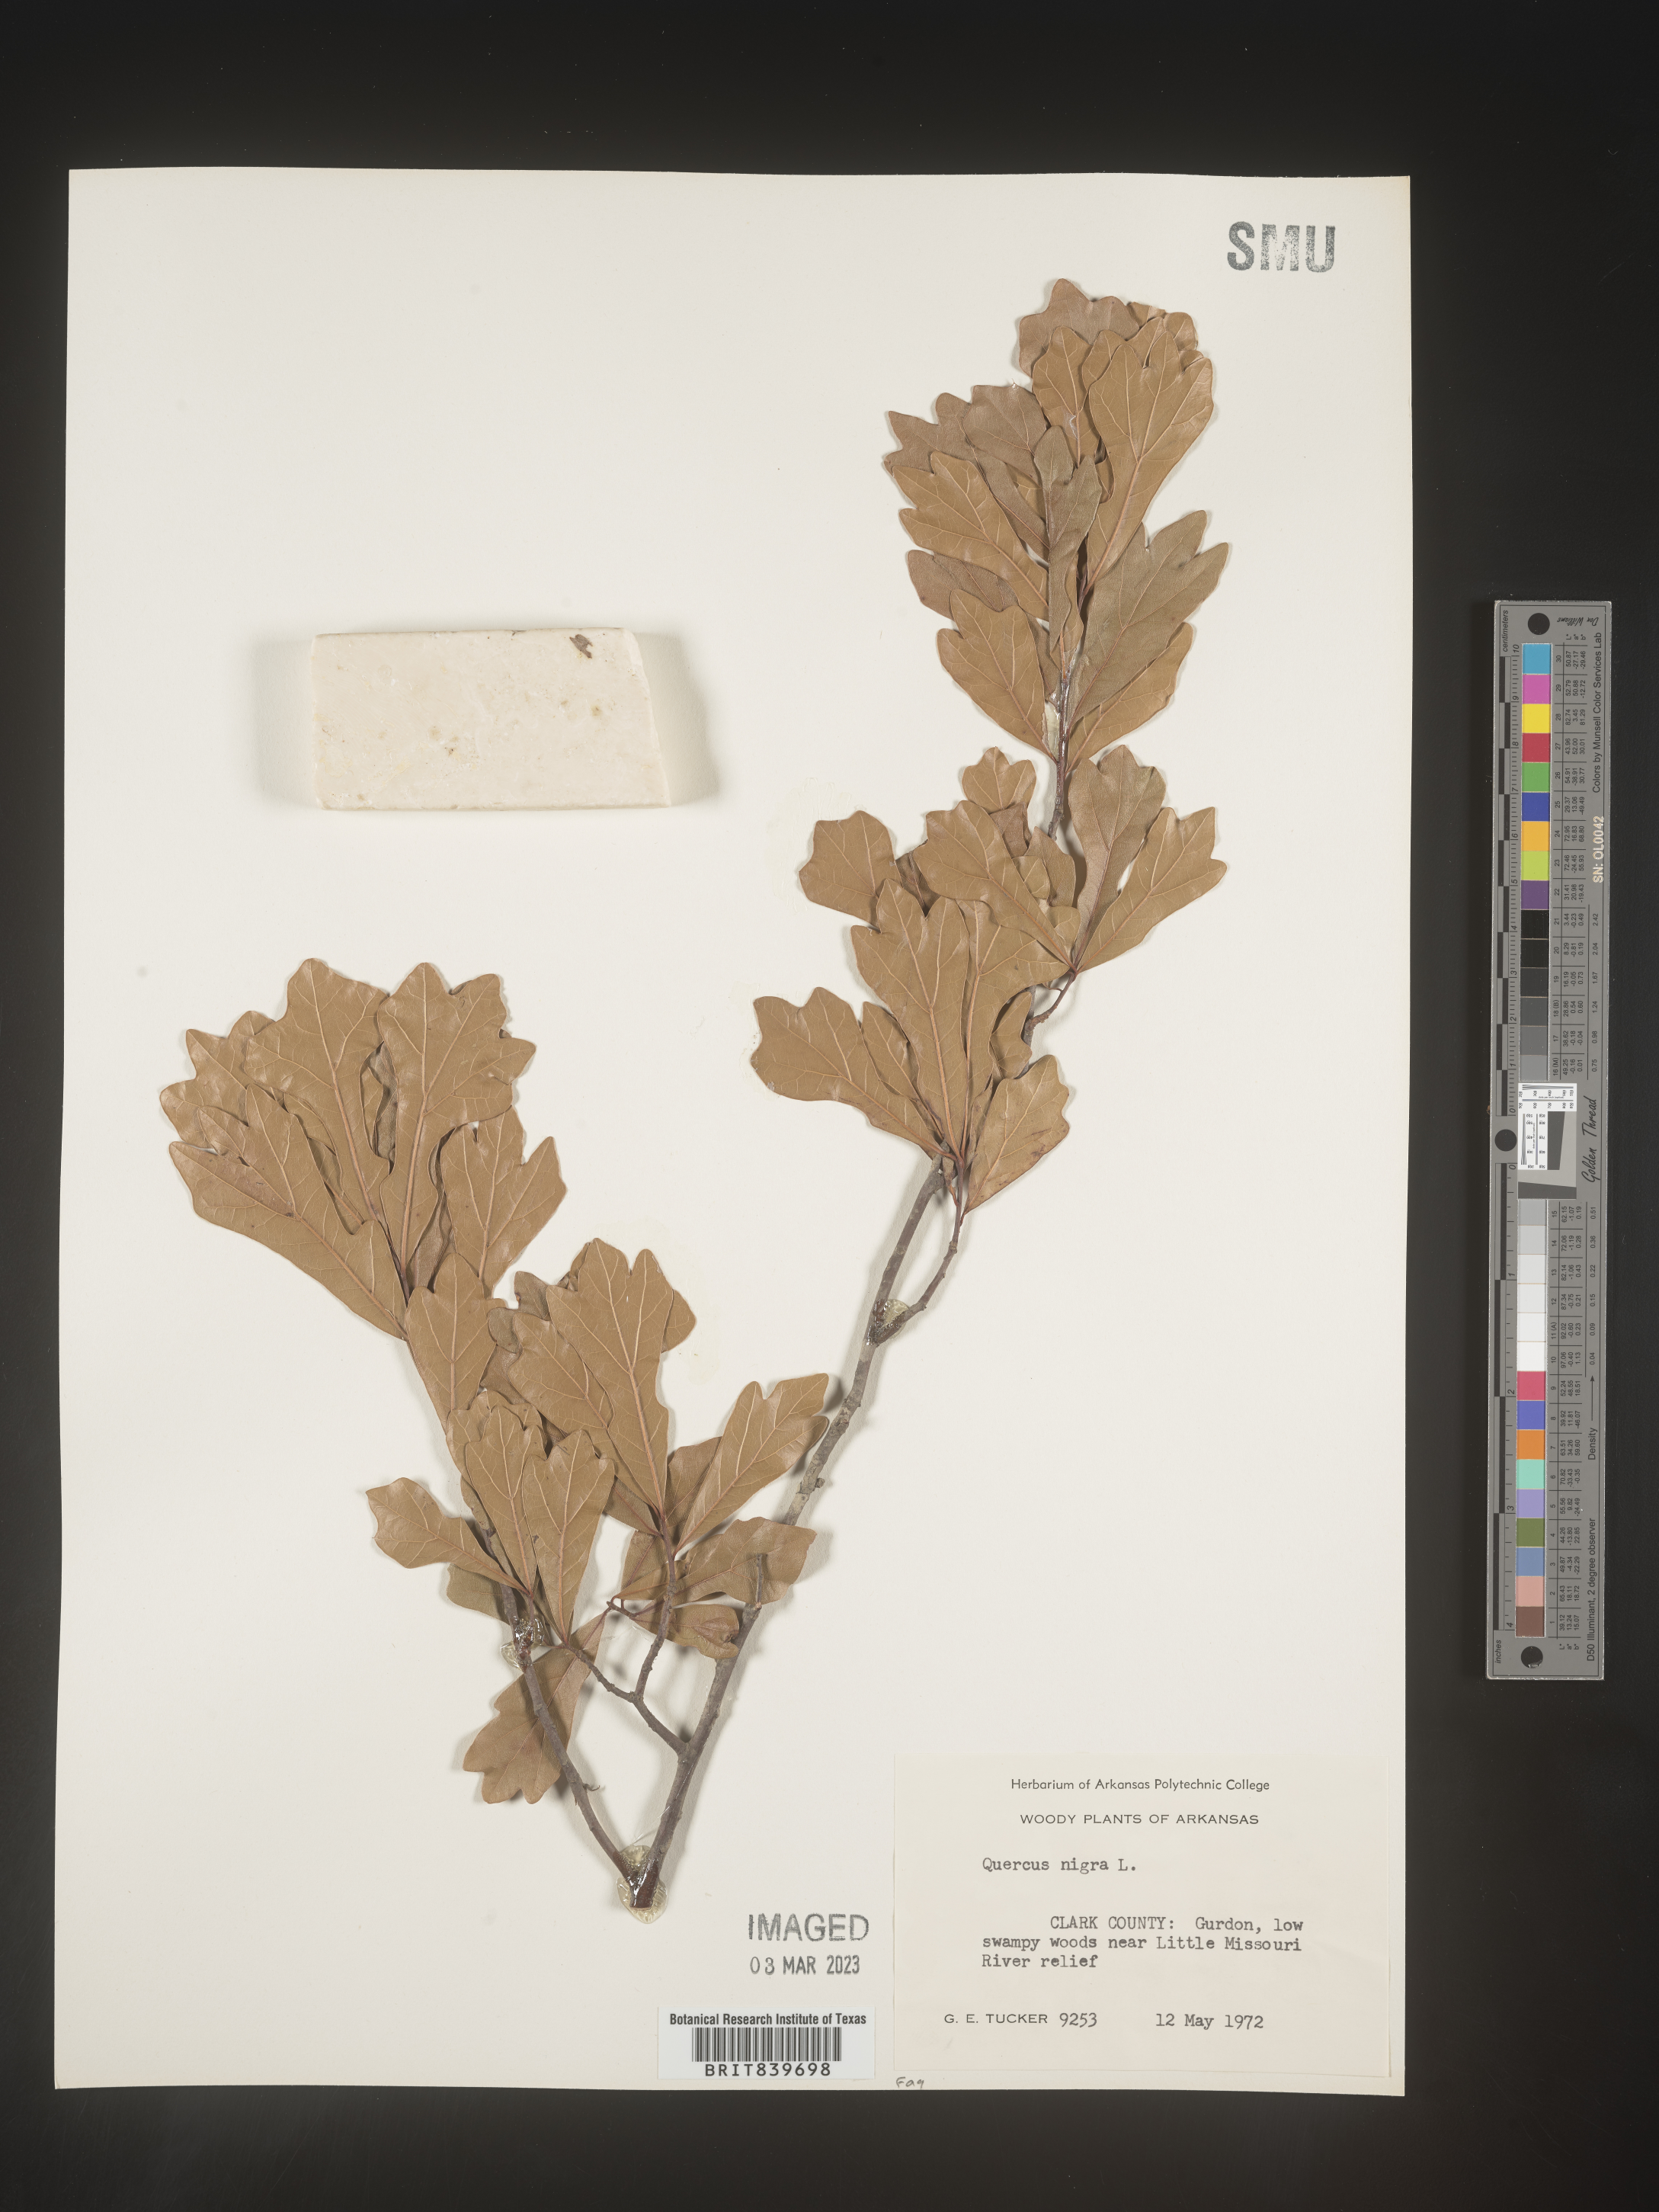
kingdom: Plantae
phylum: Tracheophyta
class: Magnoliopsida
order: Fagales
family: Fagaceae
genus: Quercus
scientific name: Quercus nigra
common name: Water oak
